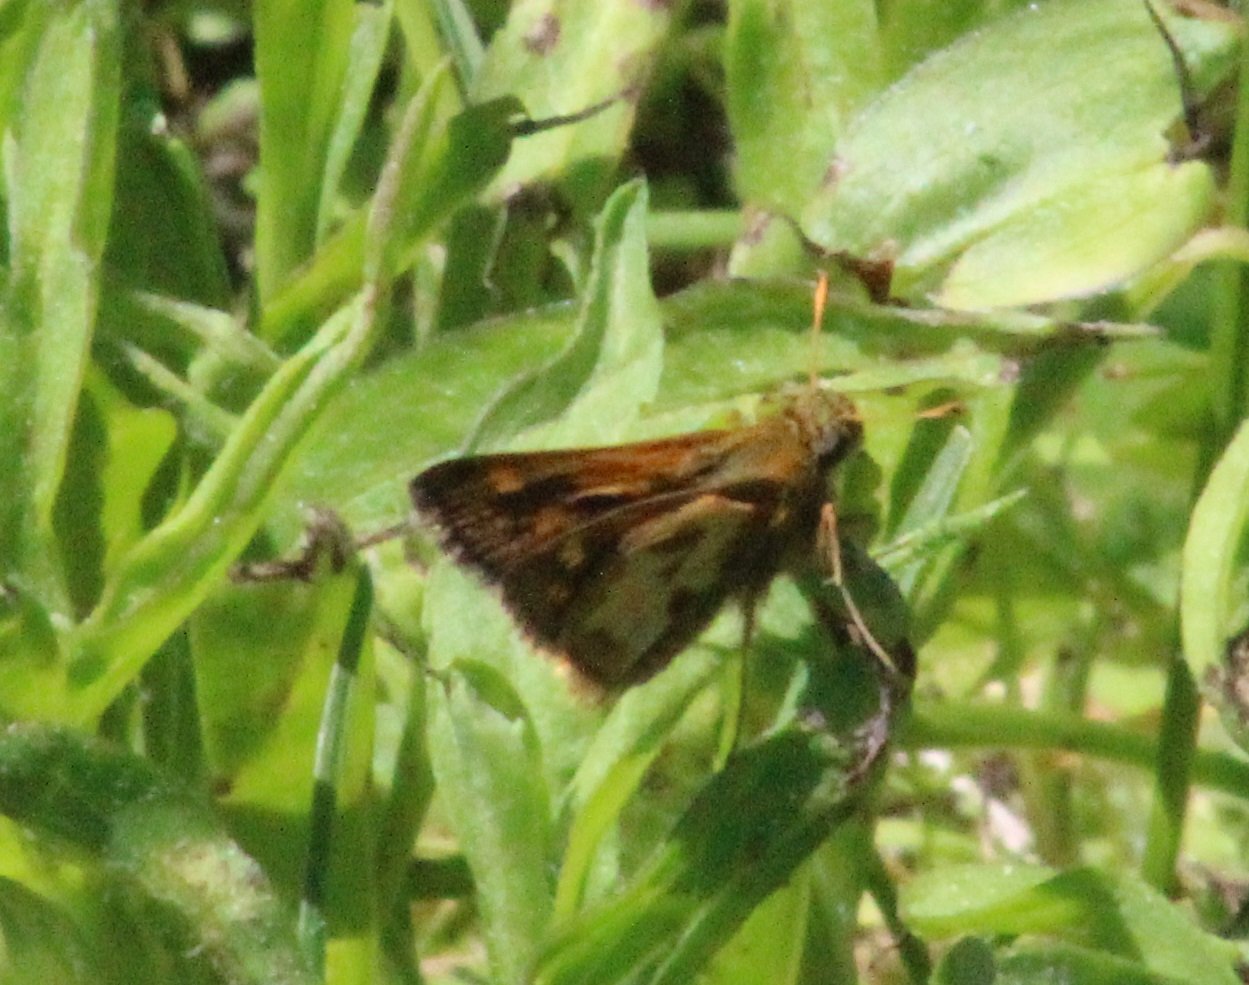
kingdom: Animalia
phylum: Arthropoda
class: Insecta
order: Lepidoptera
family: Hesperiidae
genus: Polites
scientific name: Polites coras
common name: Peck's Skipper
